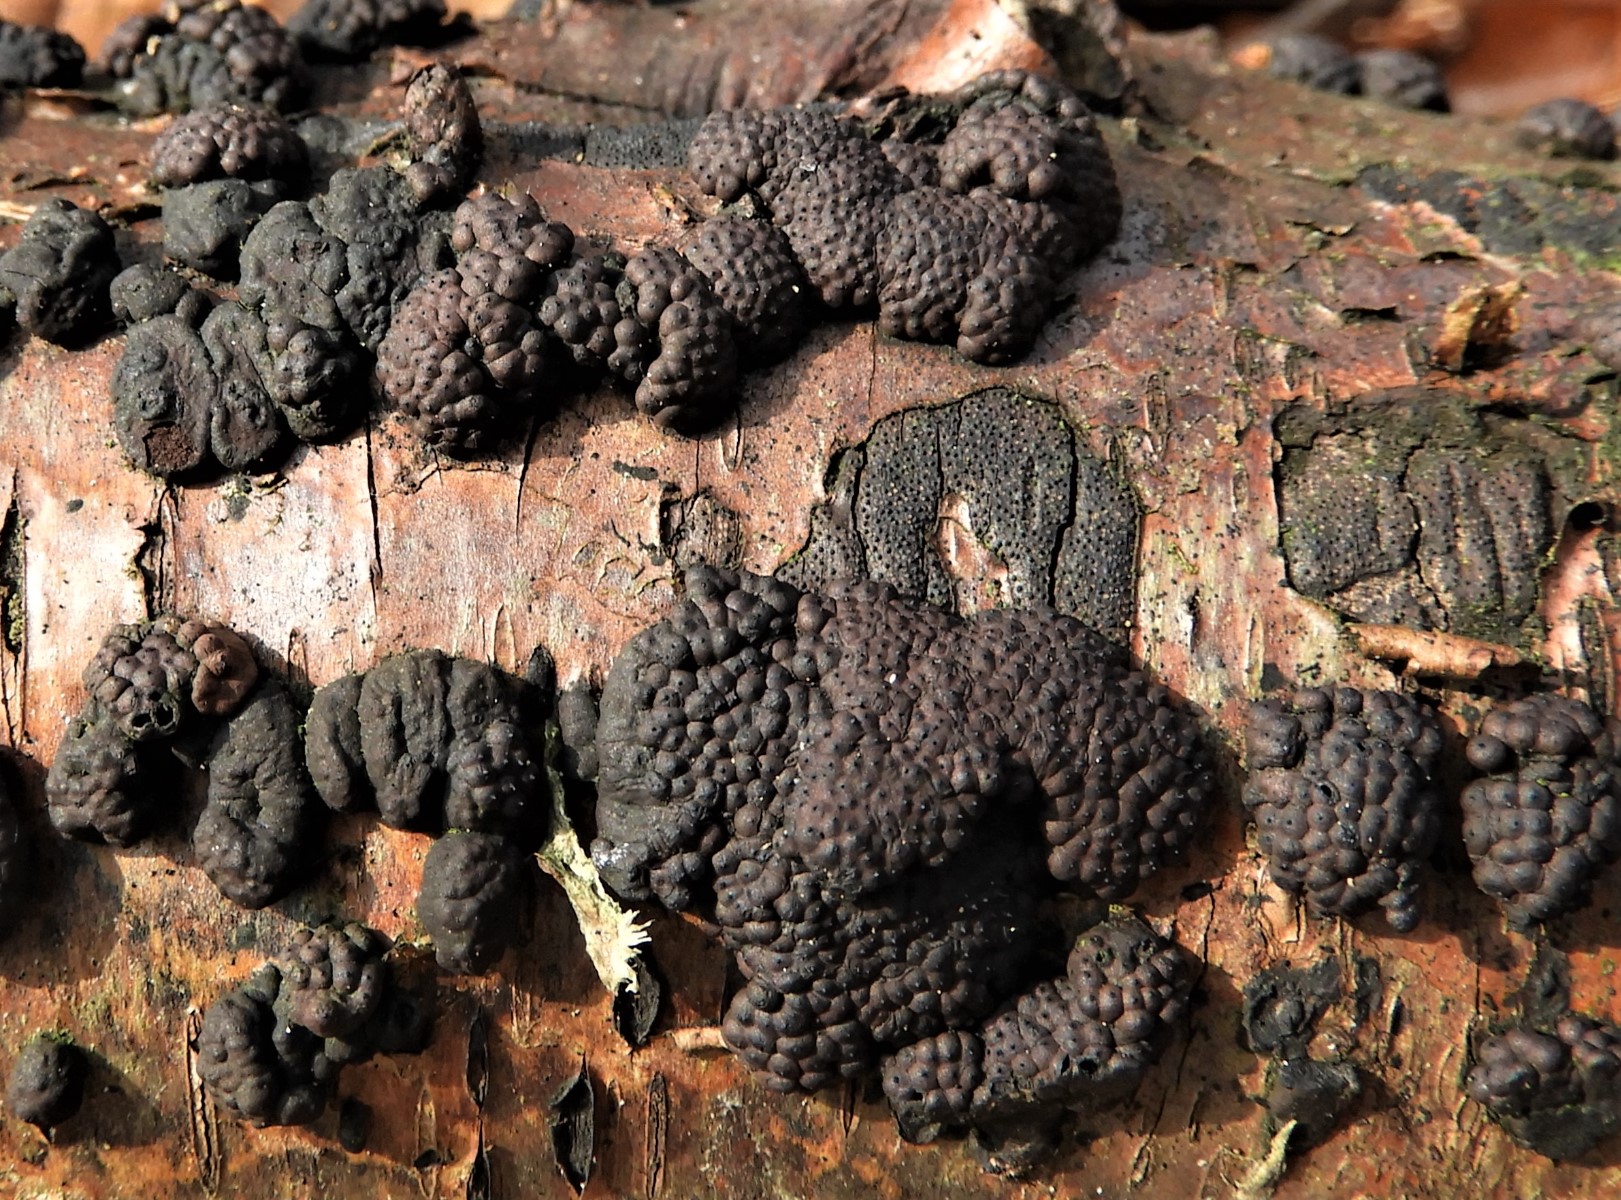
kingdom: Fungi
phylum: Ascomycota
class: Sordariomycetes
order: Xylariales
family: Hypoxylaceae
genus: Jackrogersella
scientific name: Jackrogersella multiformis
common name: foranderlig kulbær
